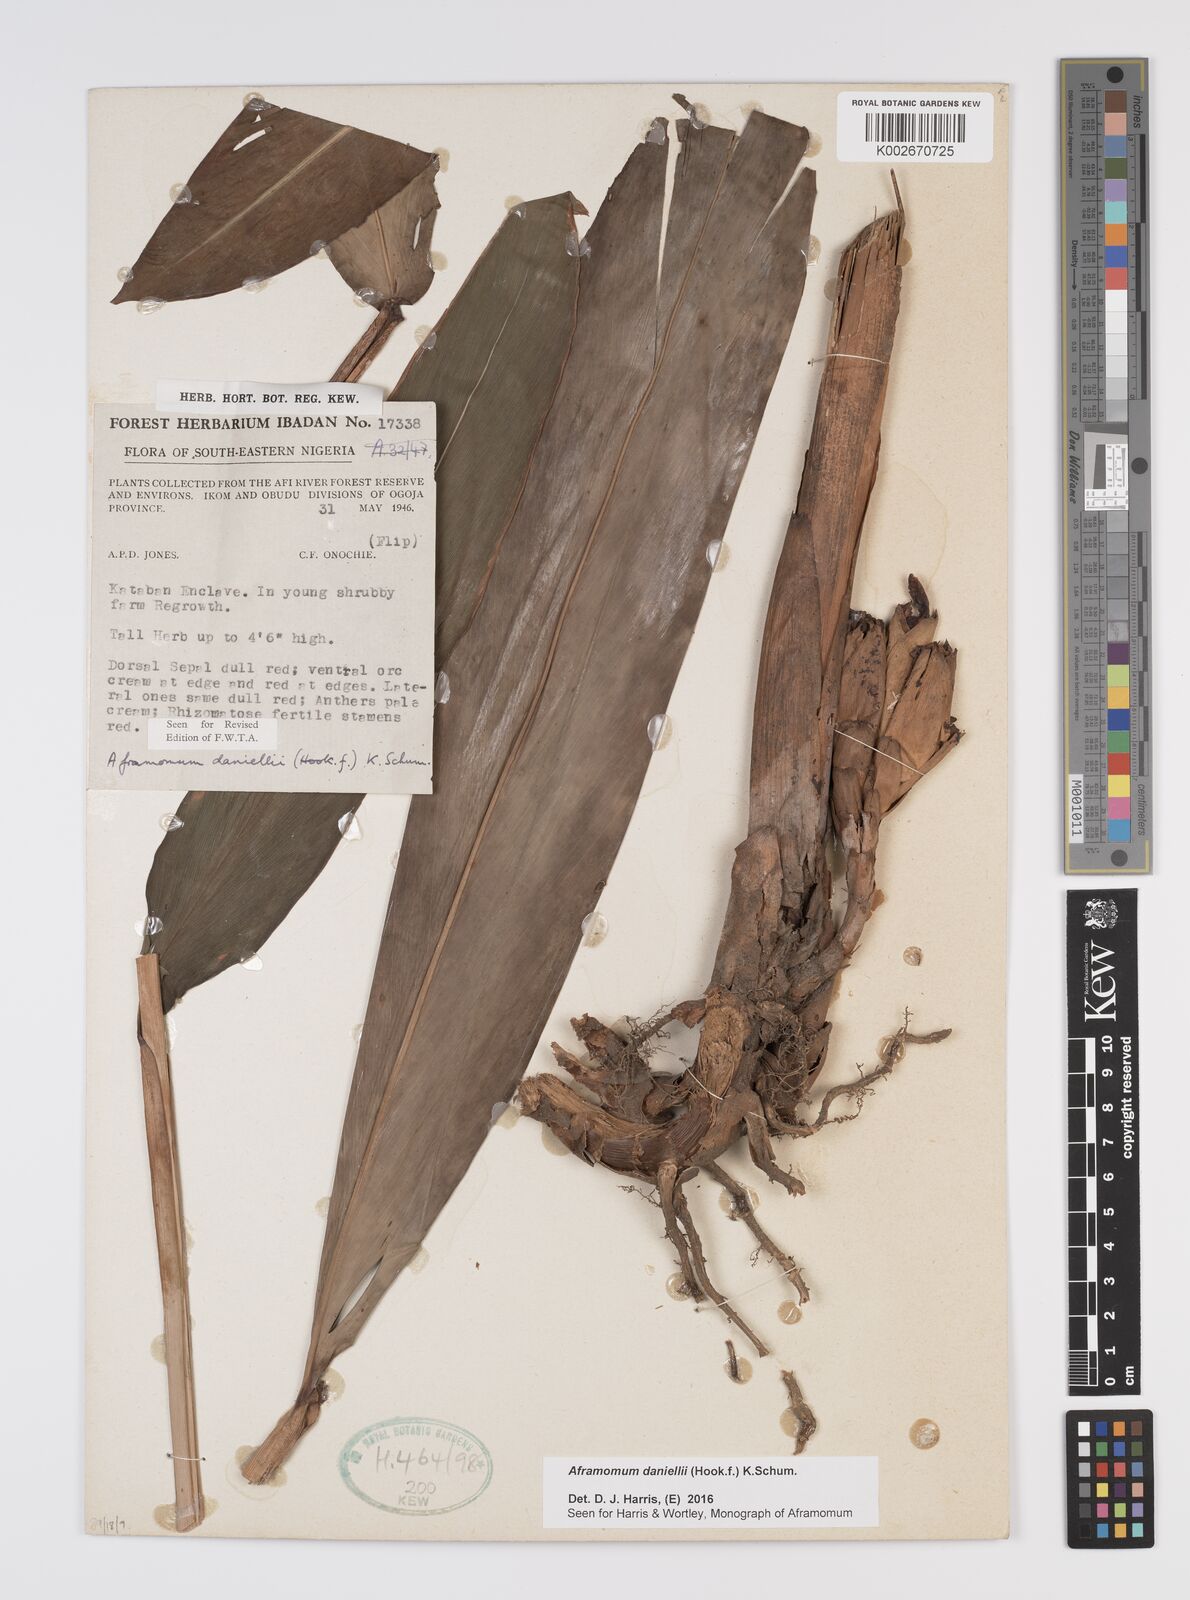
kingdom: Plantae
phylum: Tracheophyta
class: Liliopsida
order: Zingiberales
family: Zingiberaceae
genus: Aframomum
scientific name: Aframomum daniellii
